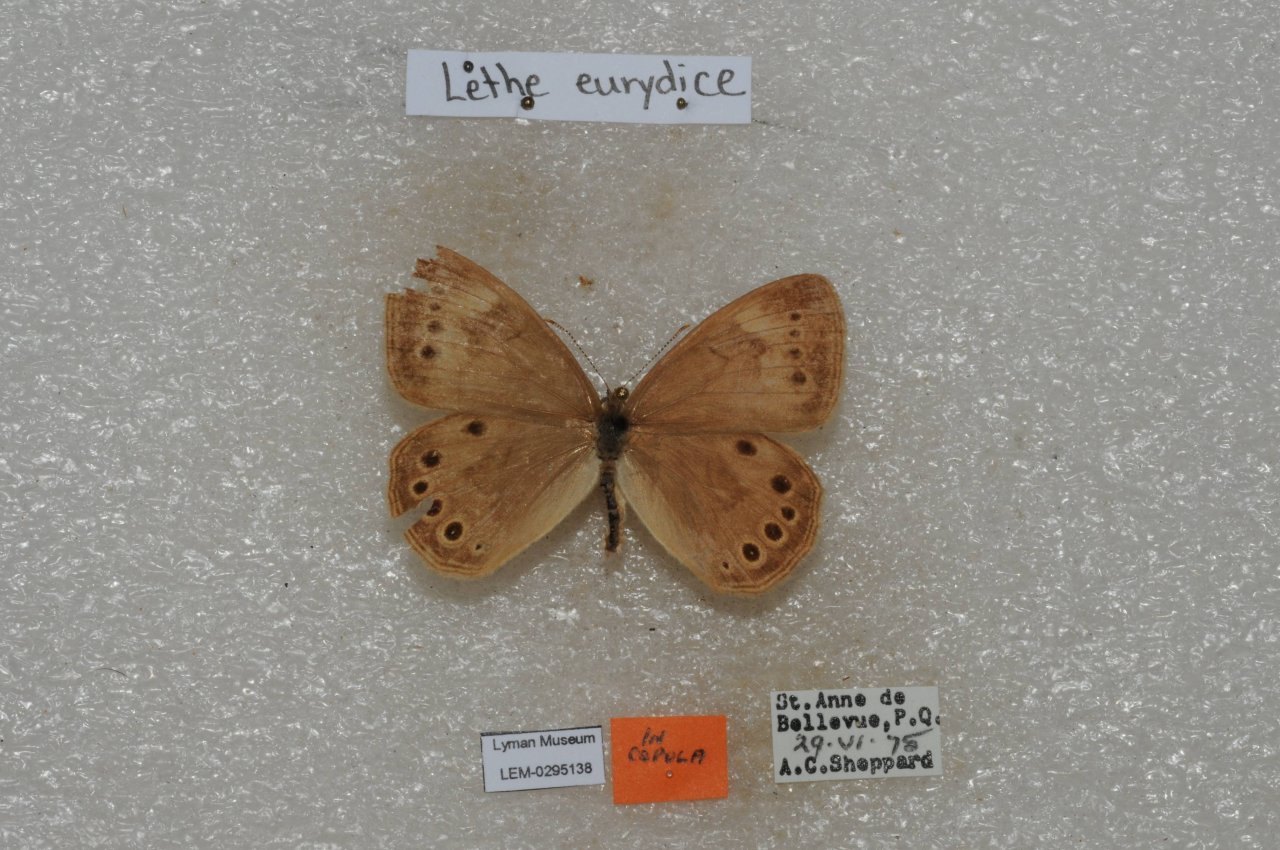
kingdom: Animalia
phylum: Arthropoda
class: Insecta
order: Lepidoptera
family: Nymphalidae
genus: Lethe
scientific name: Lethe eurydice
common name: Eyed Brown
